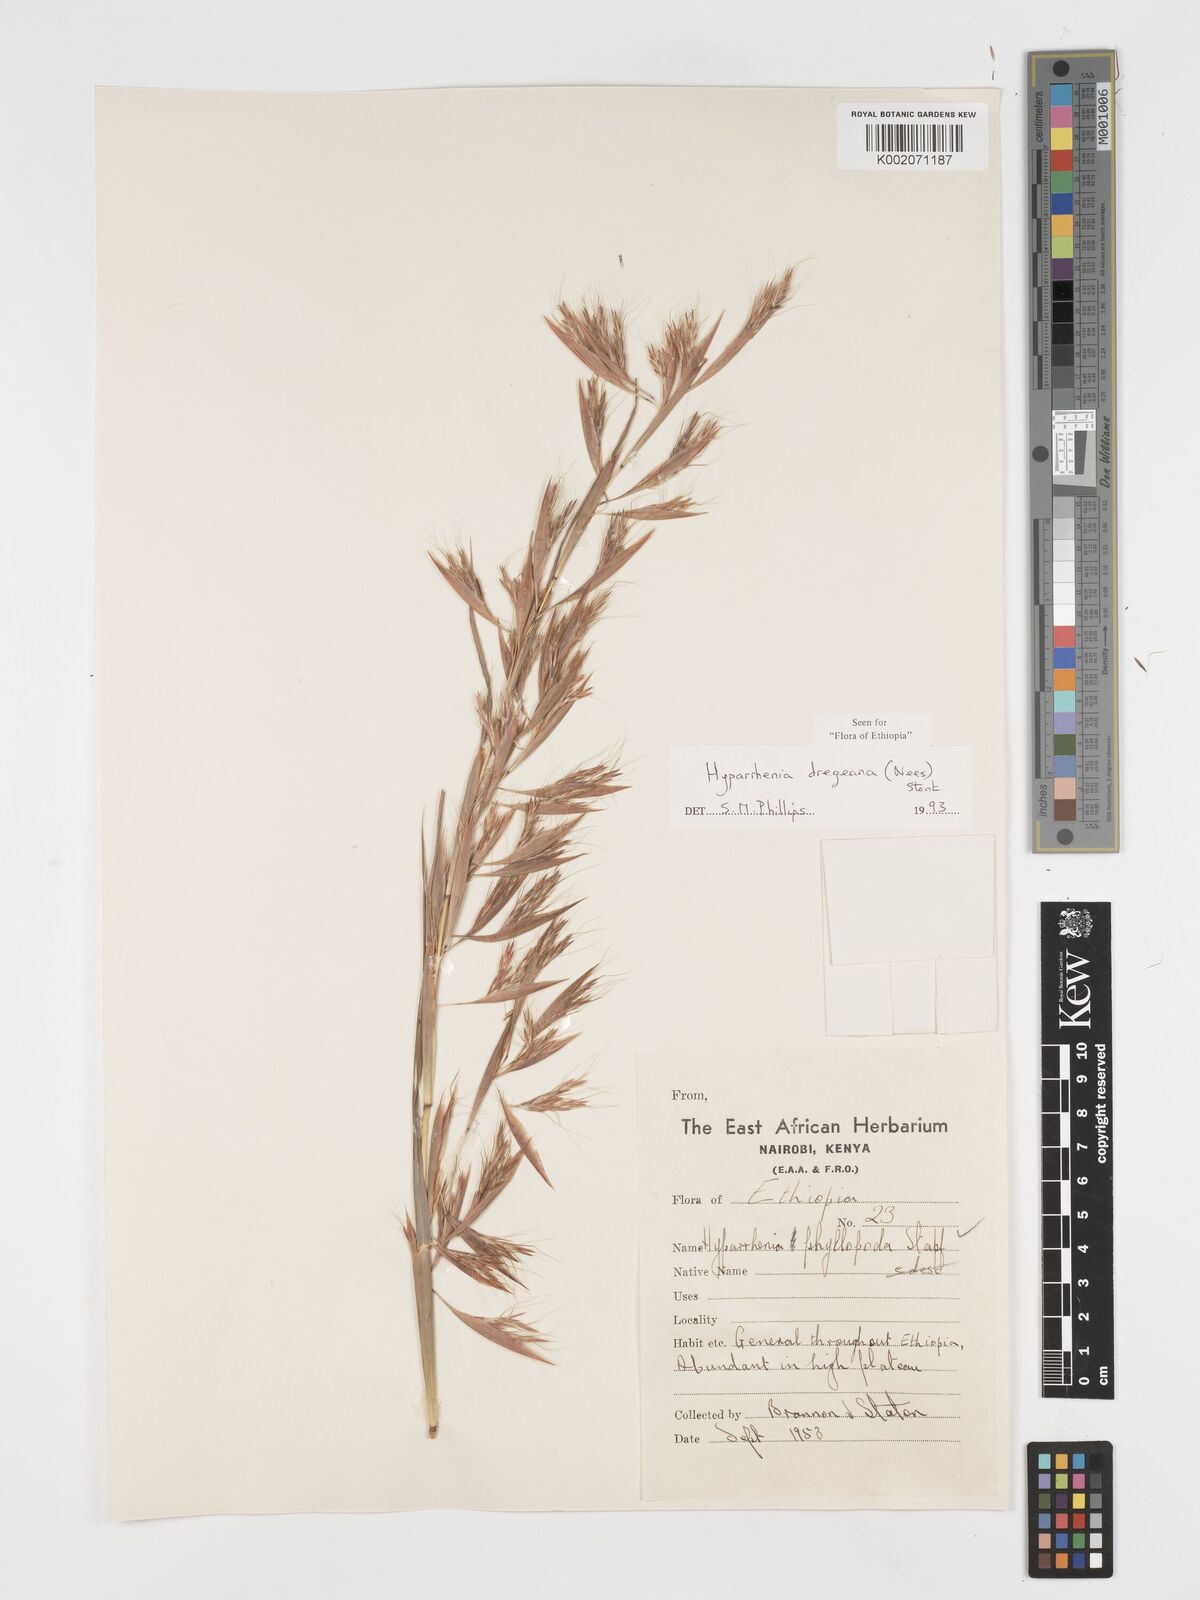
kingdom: Plantae
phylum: Tracheophyta
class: Liliopsida
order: Poales
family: Poaceae
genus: Hyparrhenia
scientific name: Hyparrhenia dregeana
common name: Silky thatching grass
